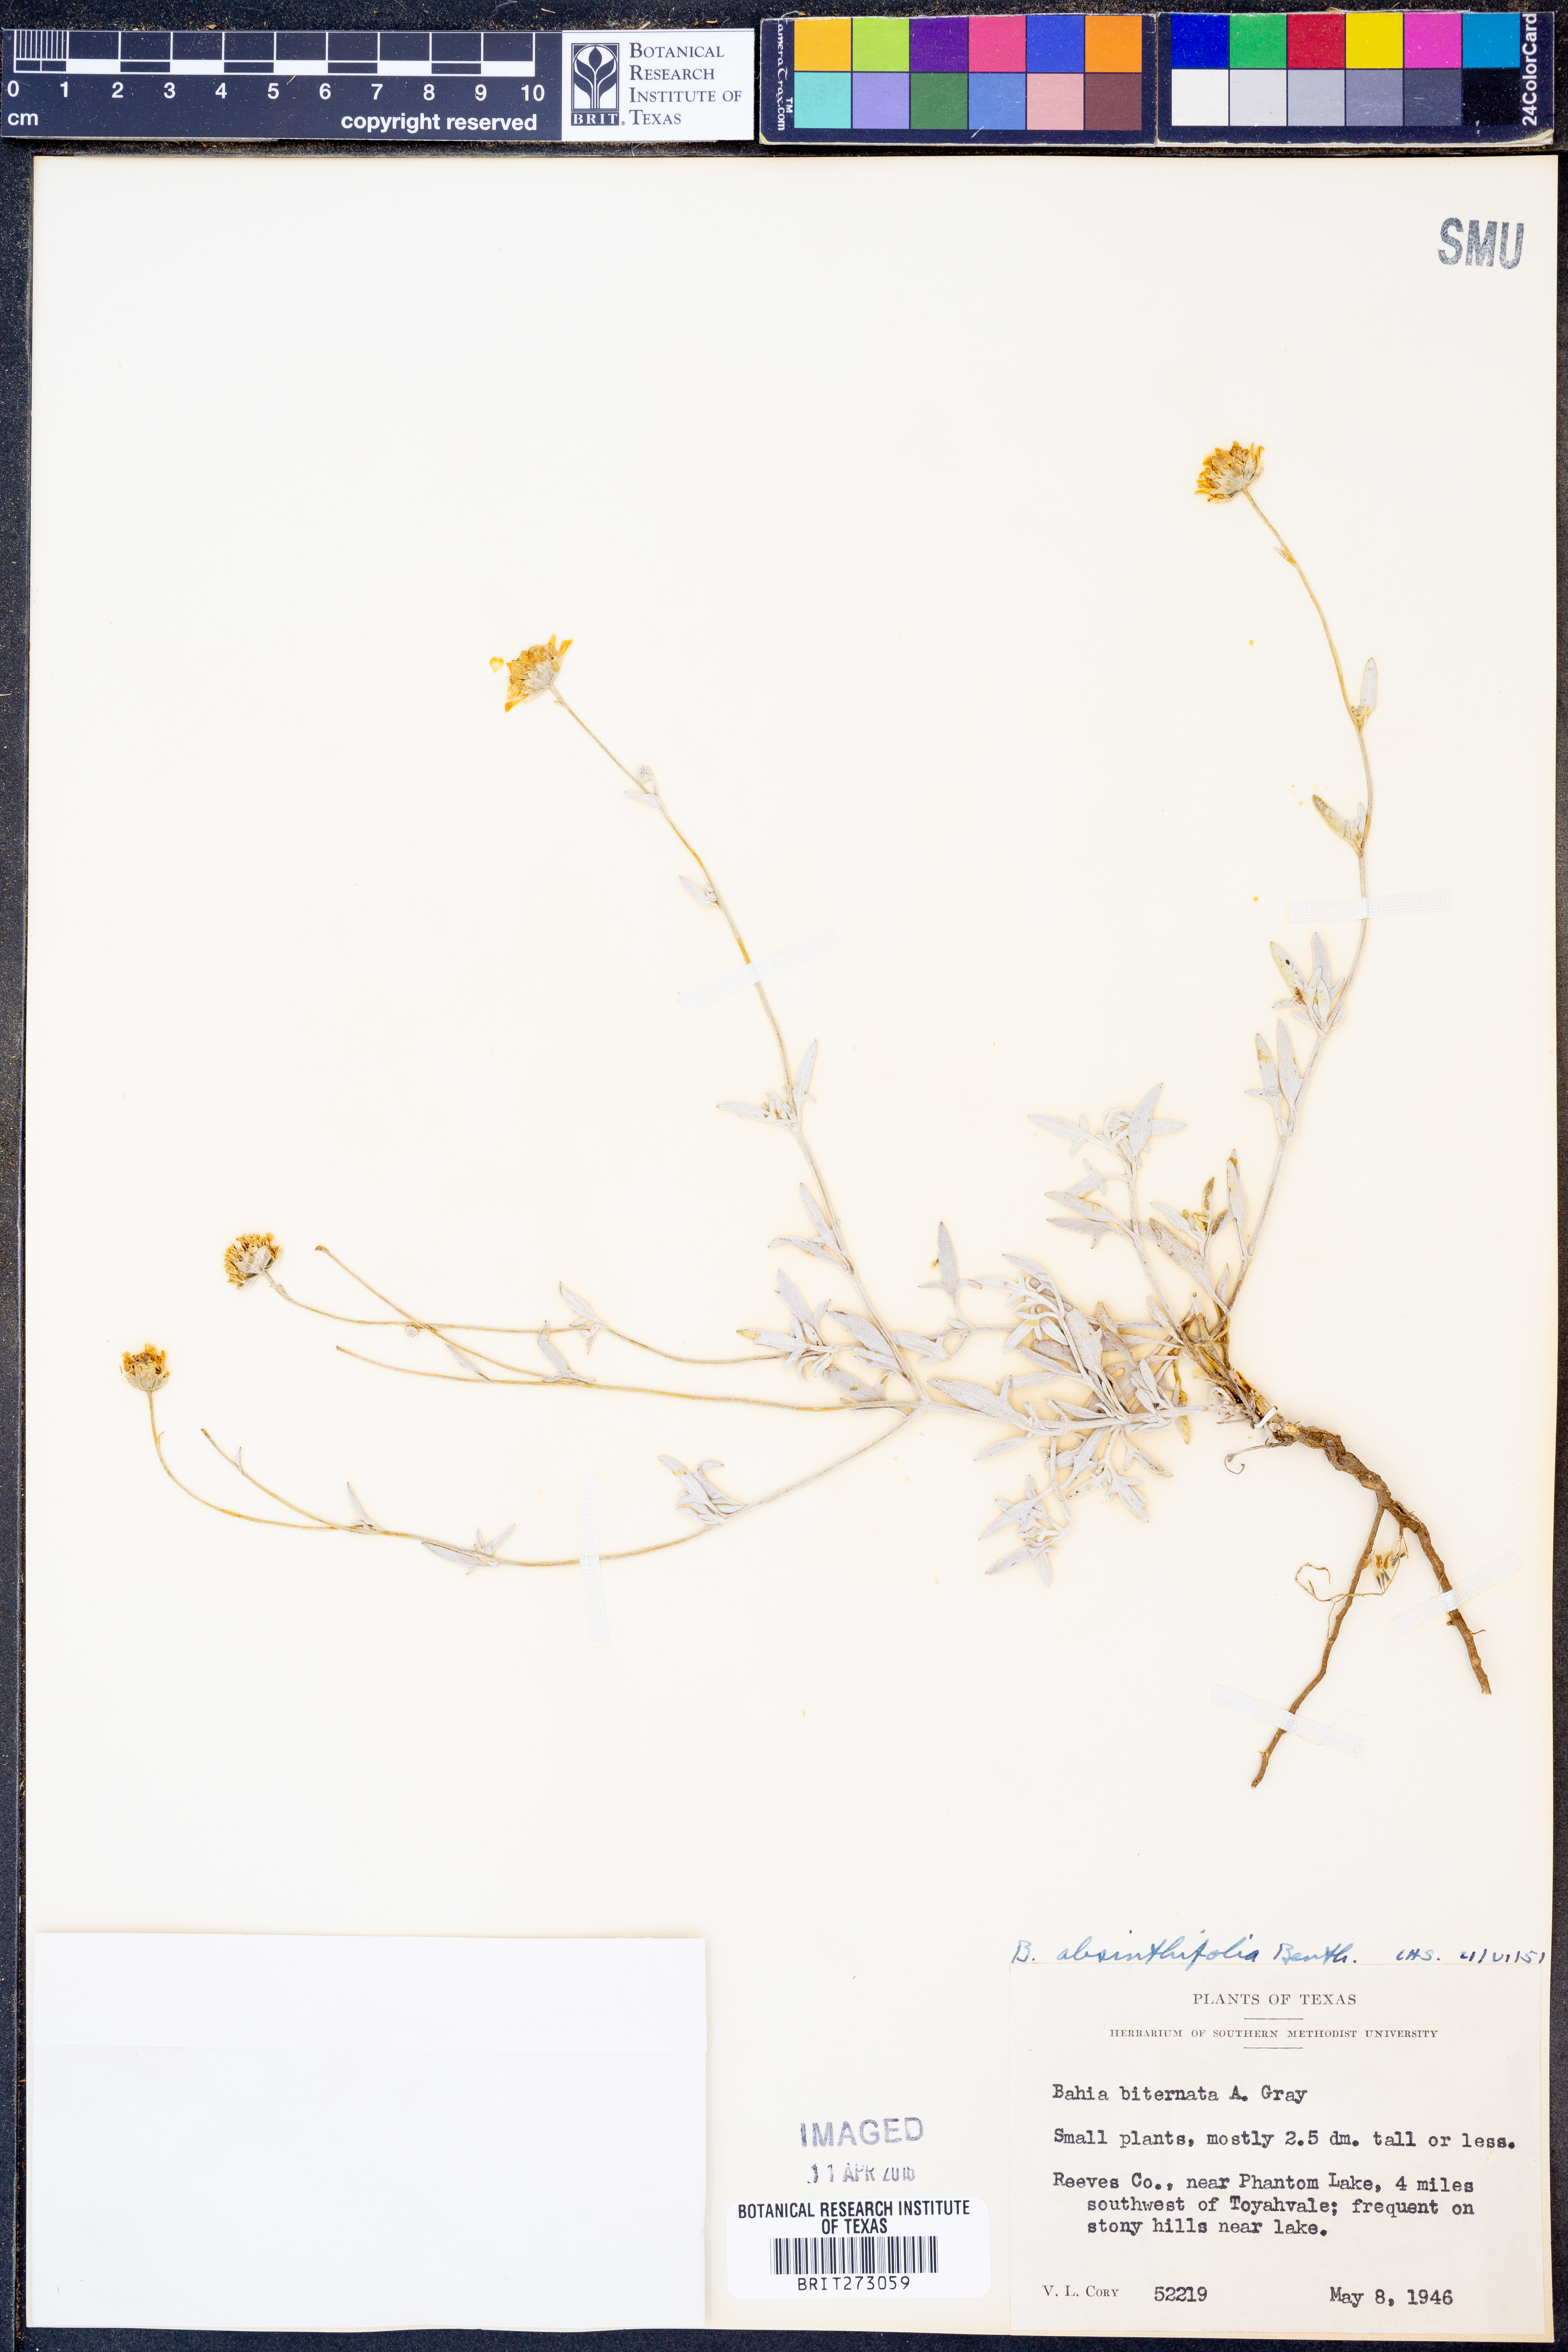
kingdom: Plantae
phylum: Tracheophyta
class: Magnoliopsida
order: Asterales
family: Asteraceae
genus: Picradeniopsis
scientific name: Picradeniopsis absinthifolia
